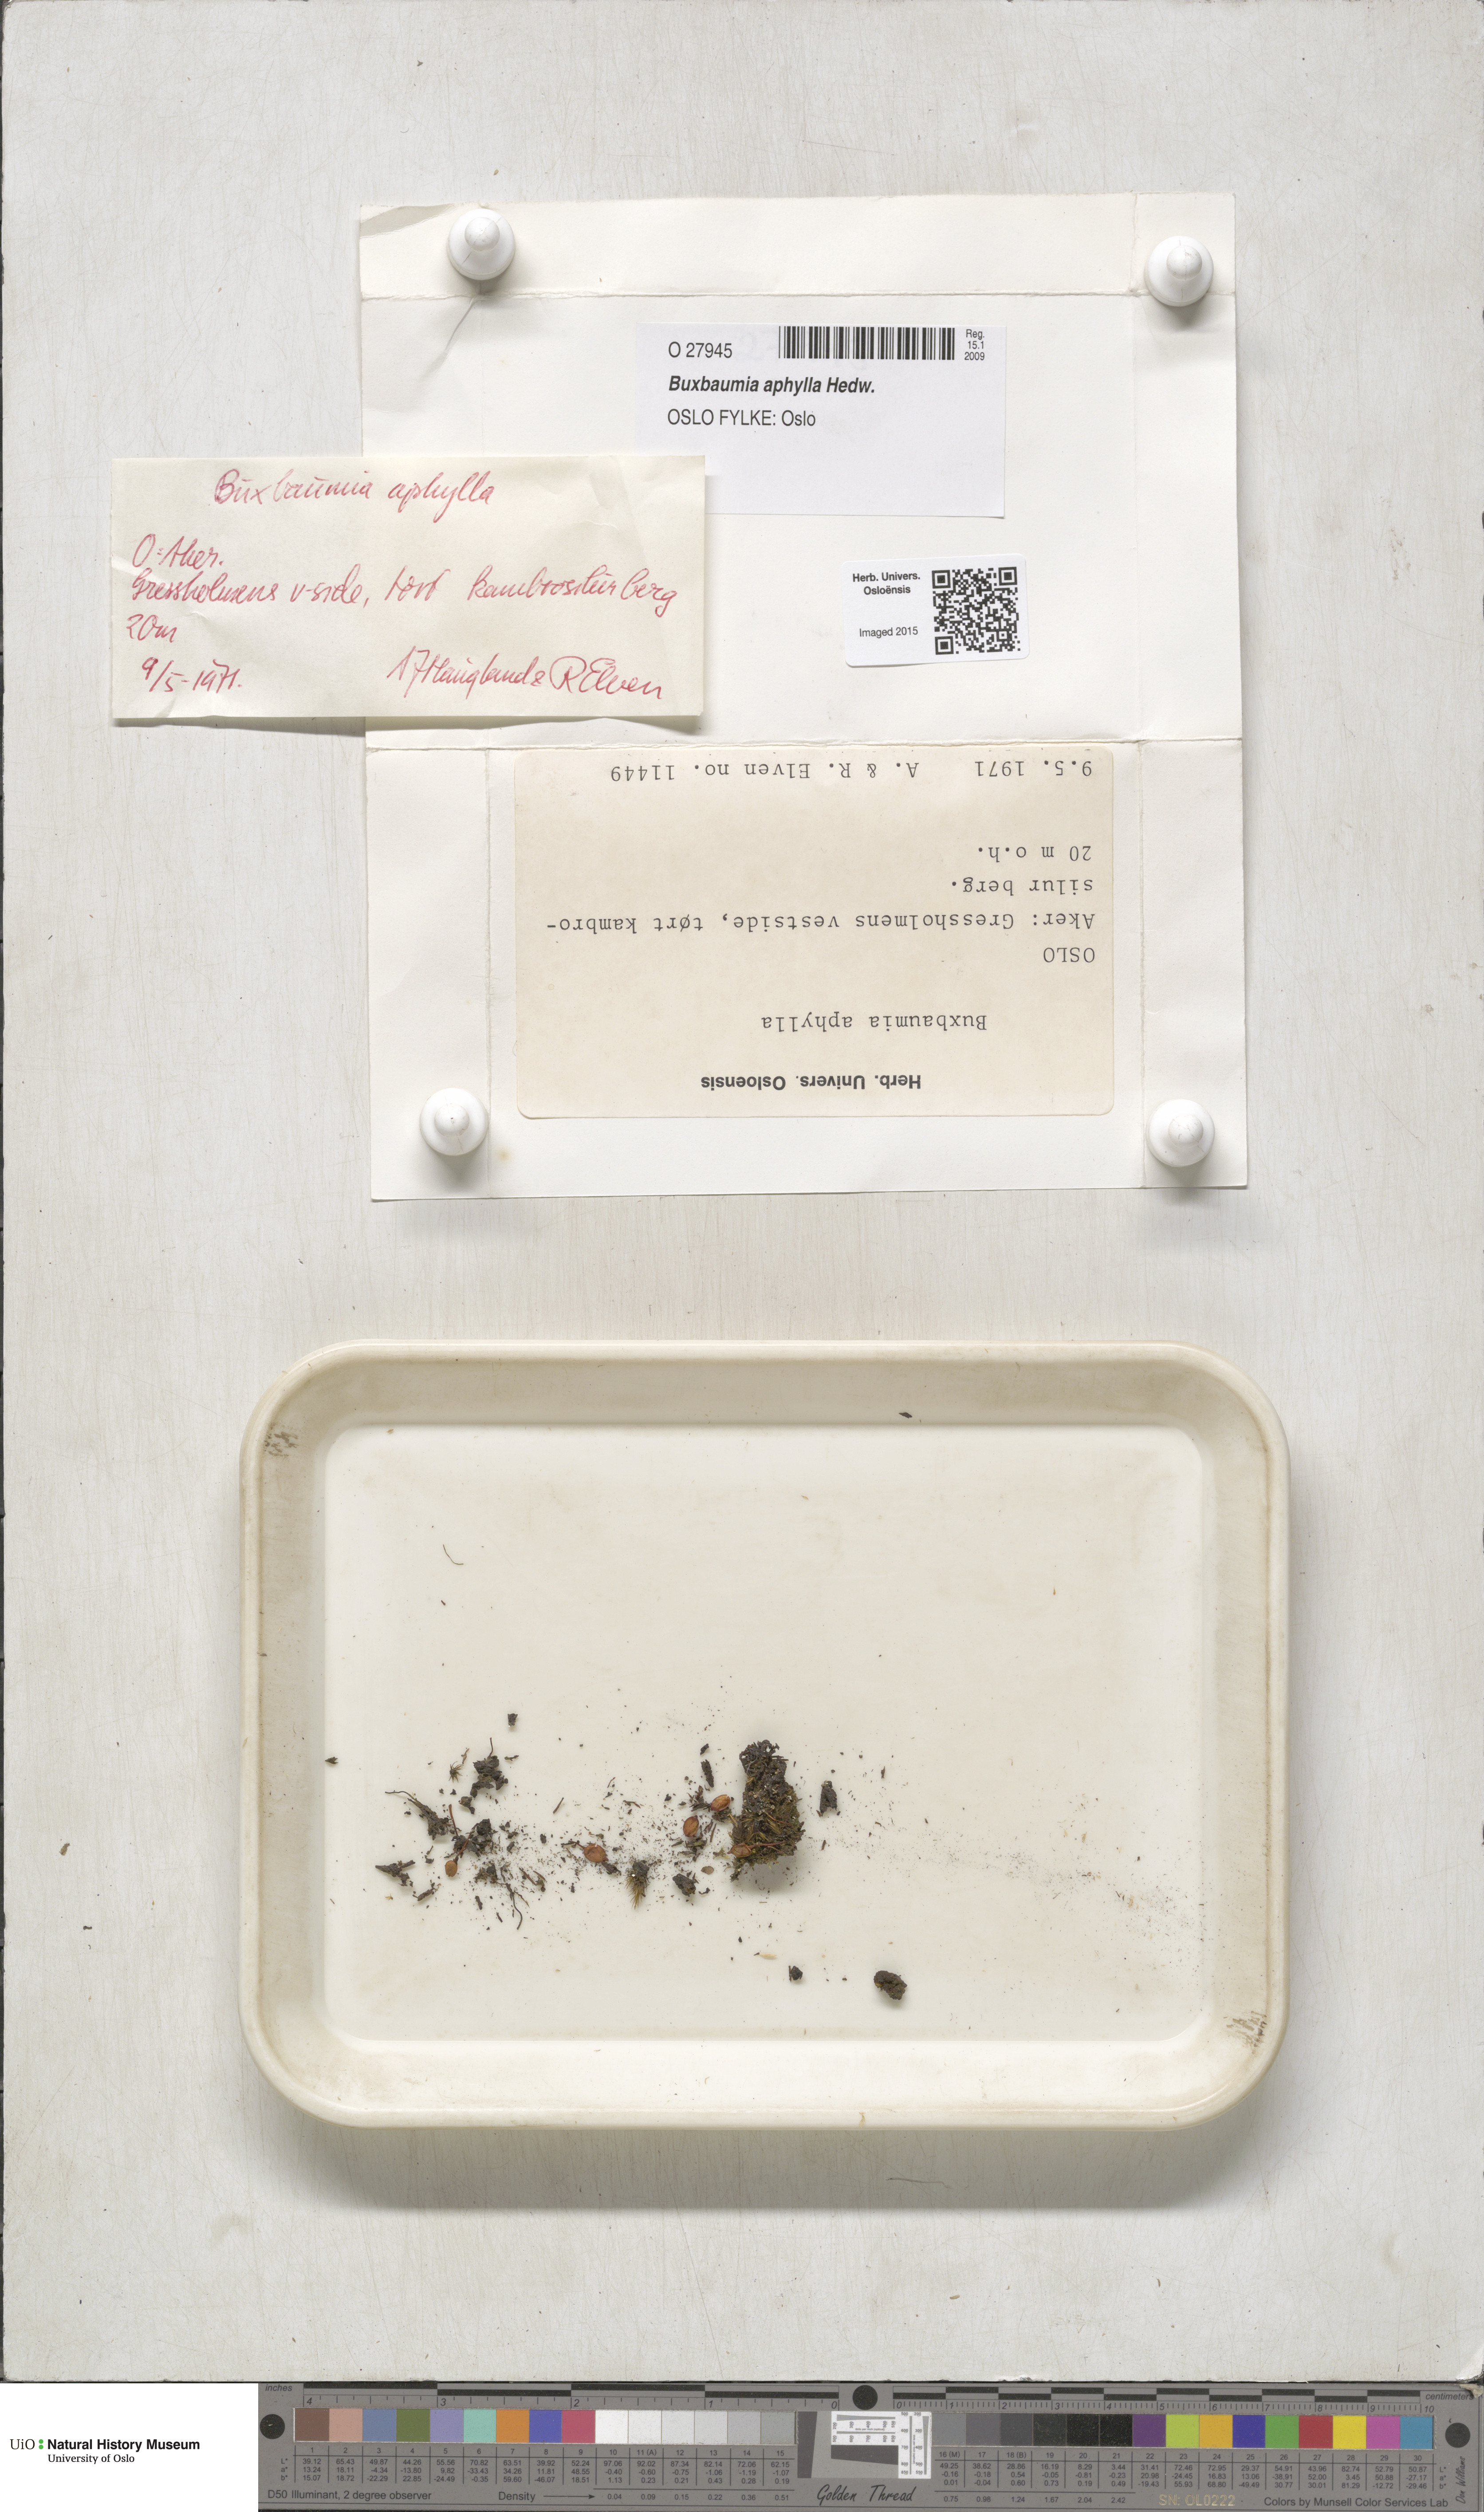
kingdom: Plantae
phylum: Bryophyta
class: Bryopsida
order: Buxbaumiales
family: Buxbaumiaceae
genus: Buxbaumia
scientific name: Buxbaumia aphylla
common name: Brown shield-moss
